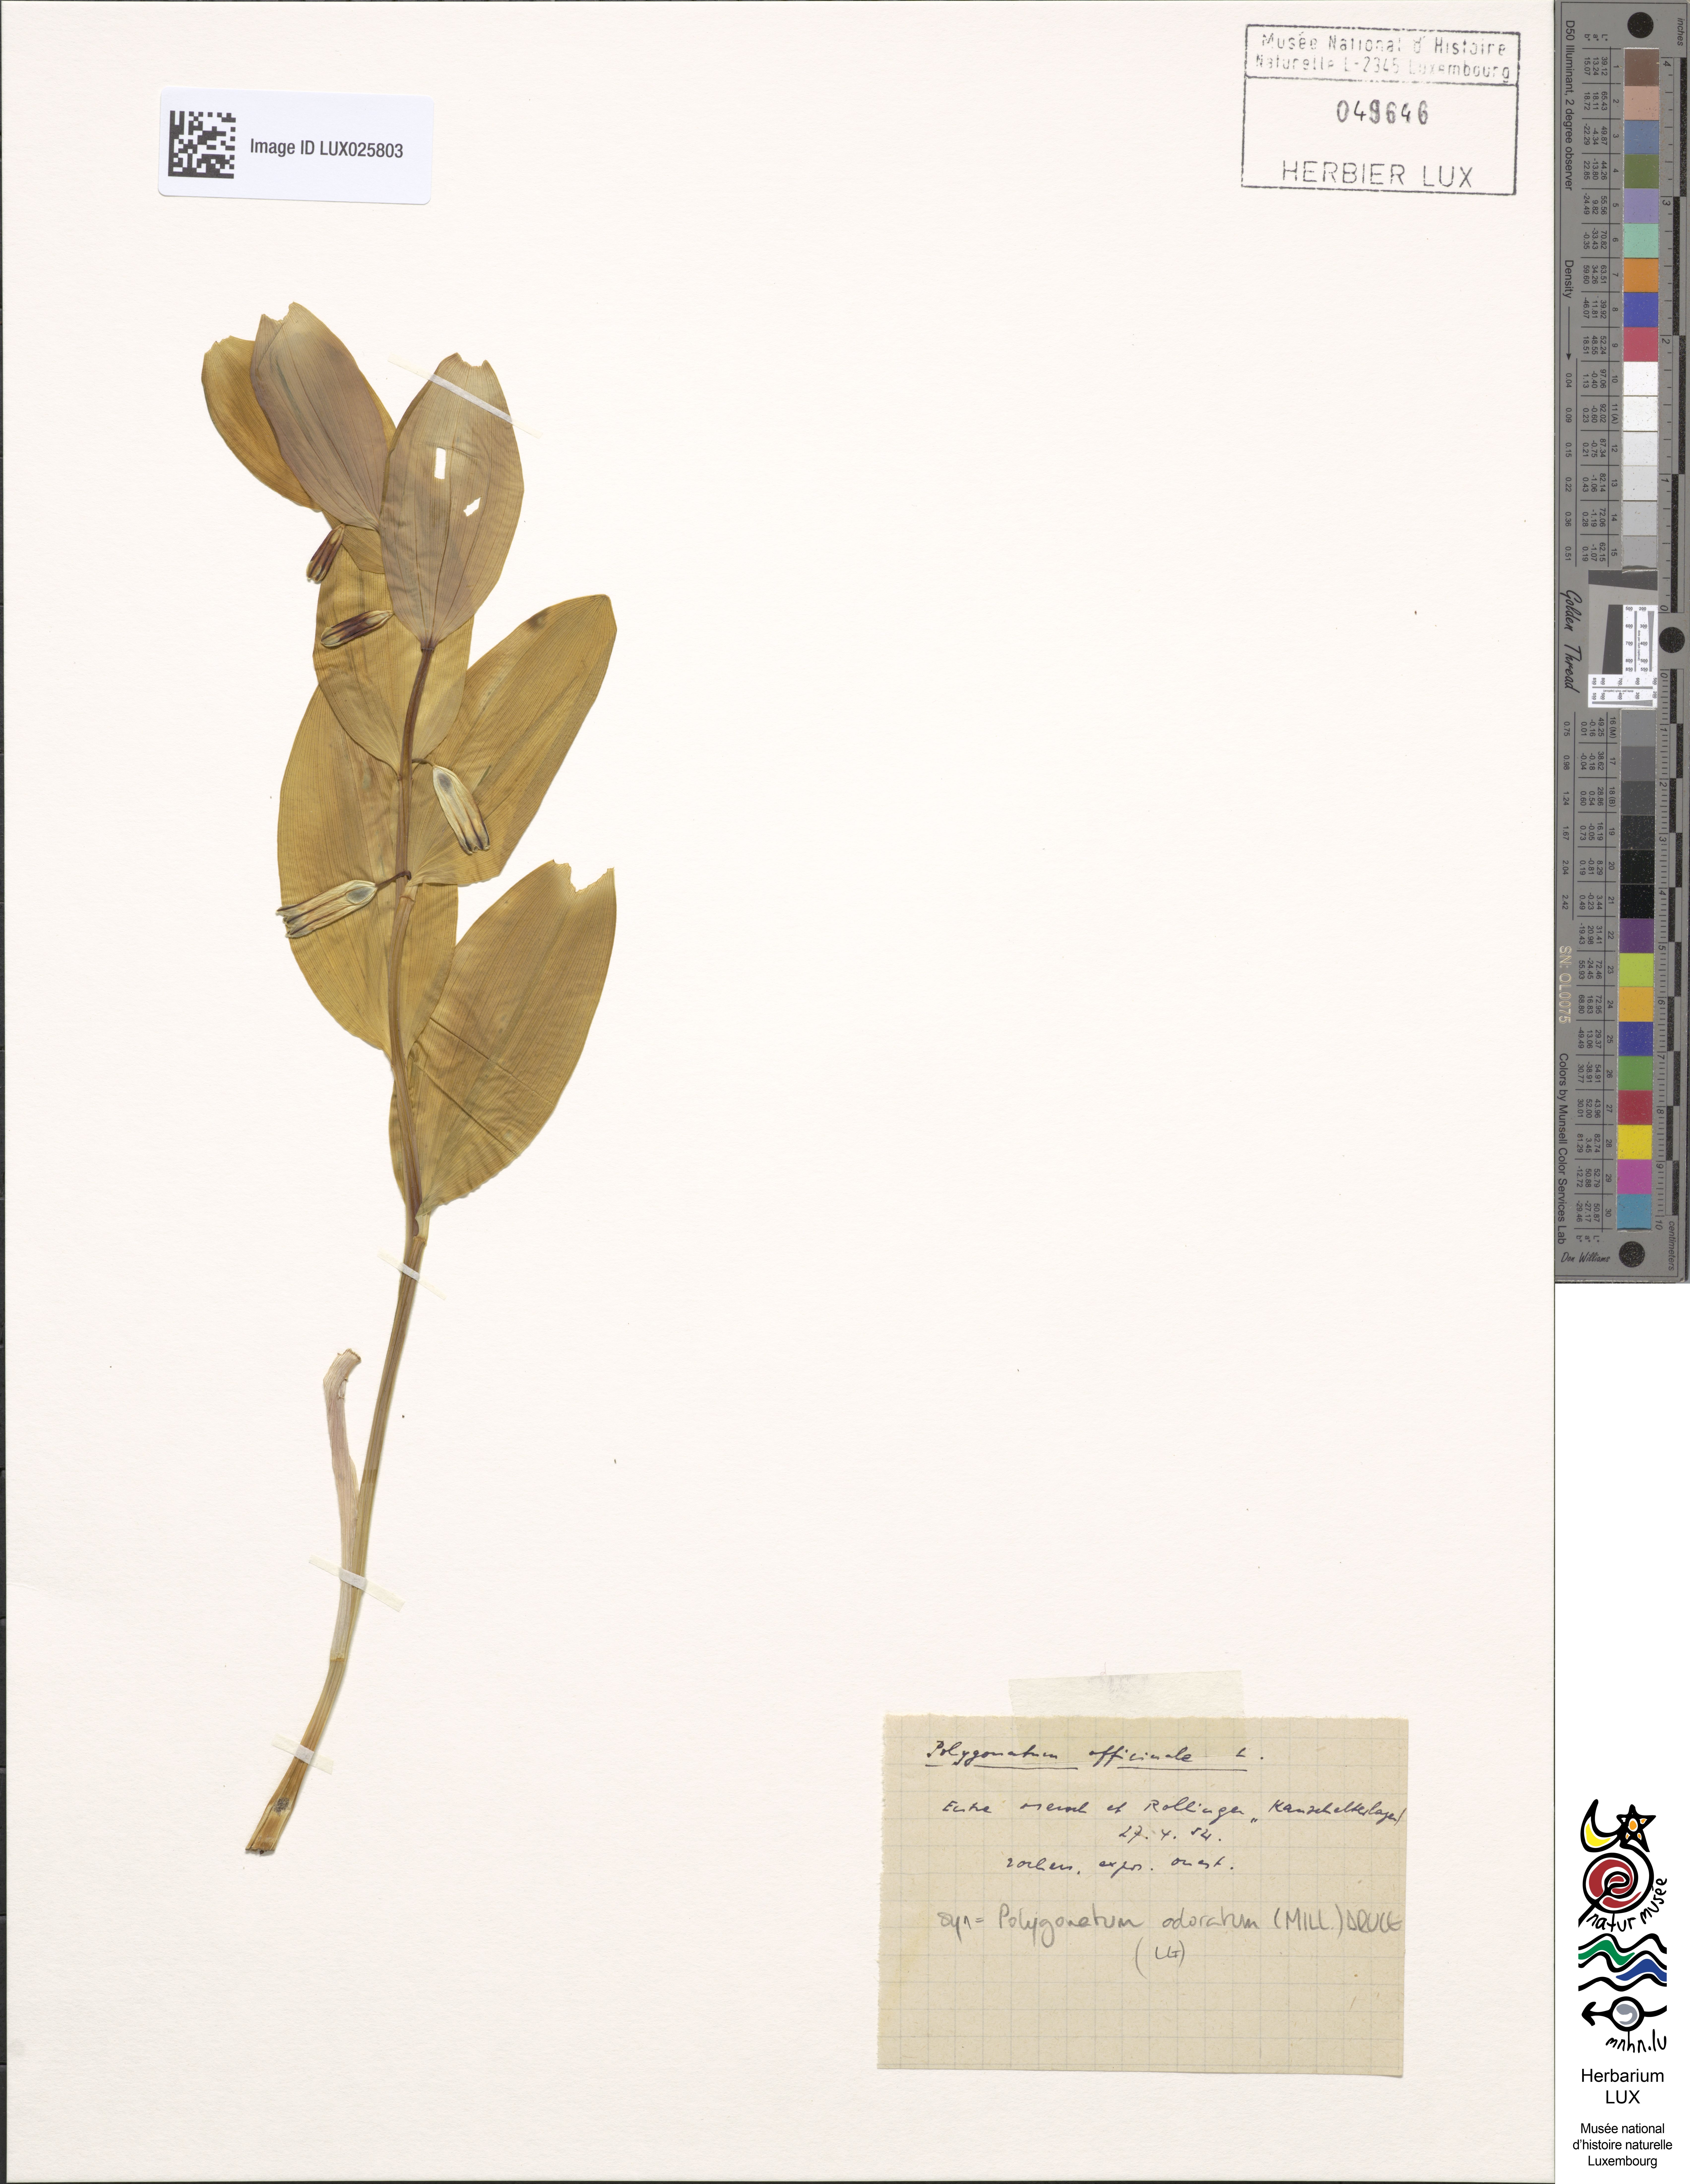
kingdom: Plantae
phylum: Tracheophyta
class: Liliopsida
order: Asparagales
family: Asparagaceae
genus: Polygonatum
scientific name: Polygonatum odoratum
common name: Angular solomon's-seal
